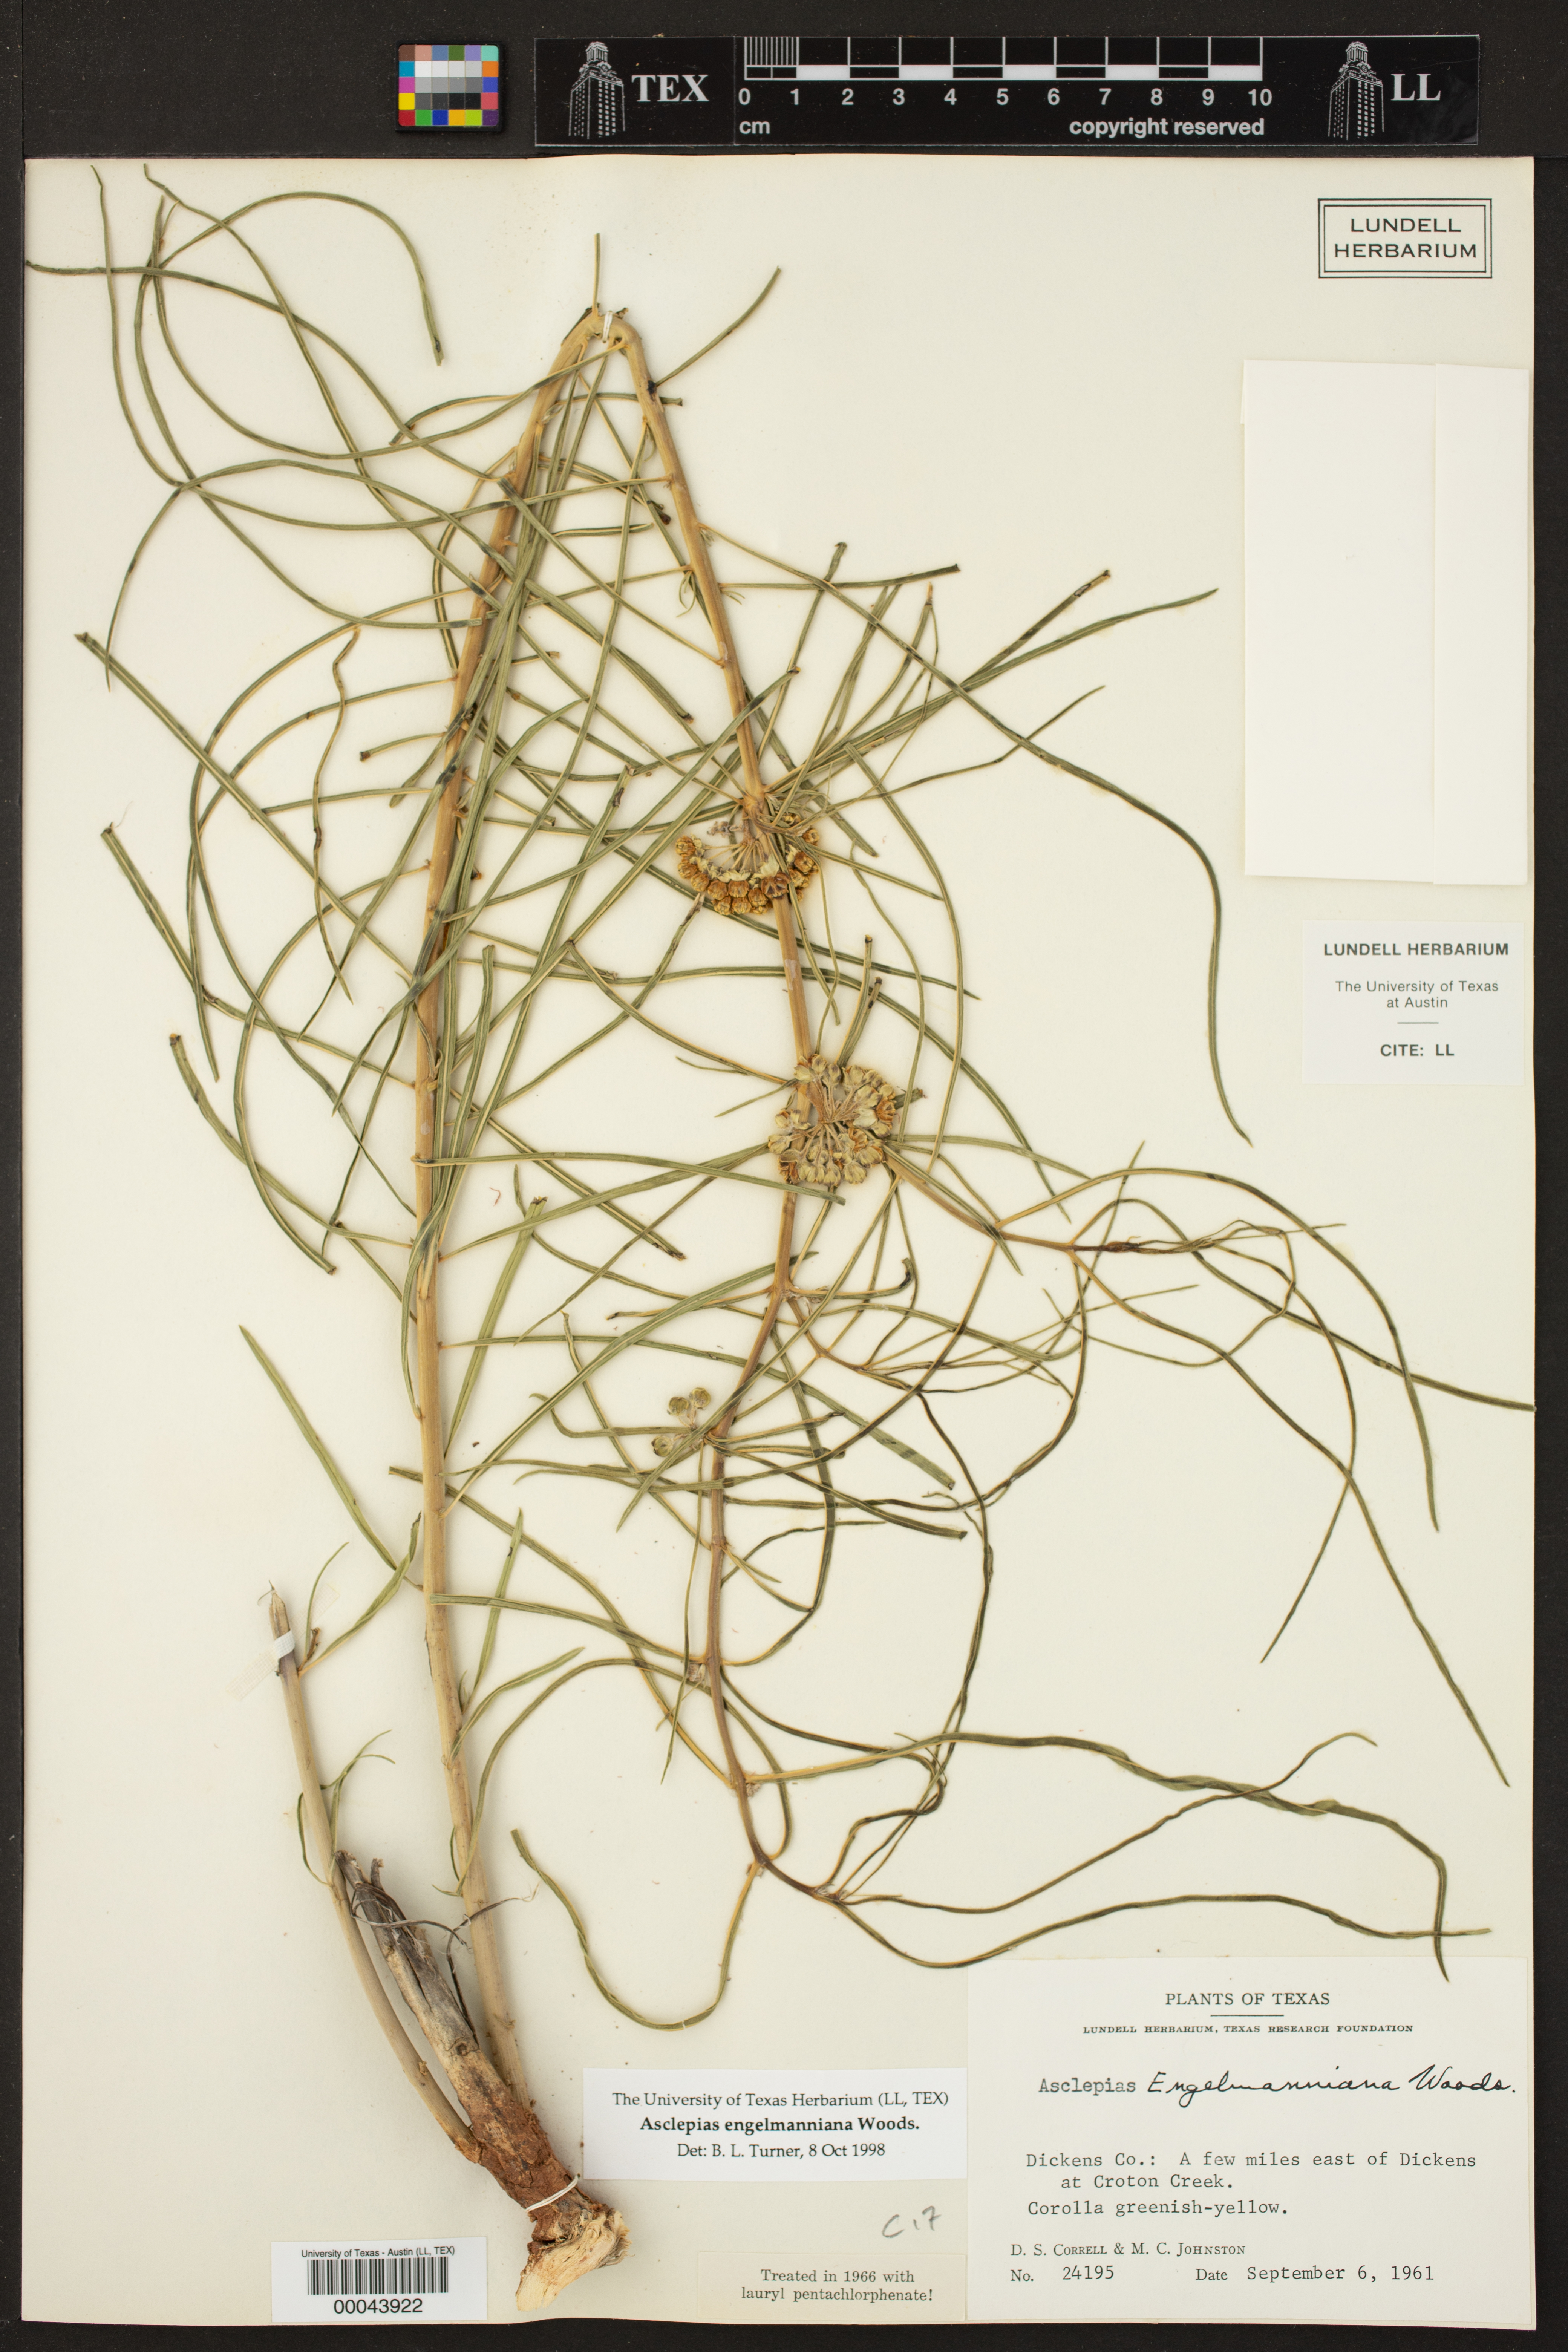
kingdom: Plantae
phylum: Tracheophyta
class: Magnoliopsida
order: Gentianales
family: Apocynaceae
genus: Asclepias
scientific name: Asclepias engelmanniana
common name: Engelmann's milkweed
